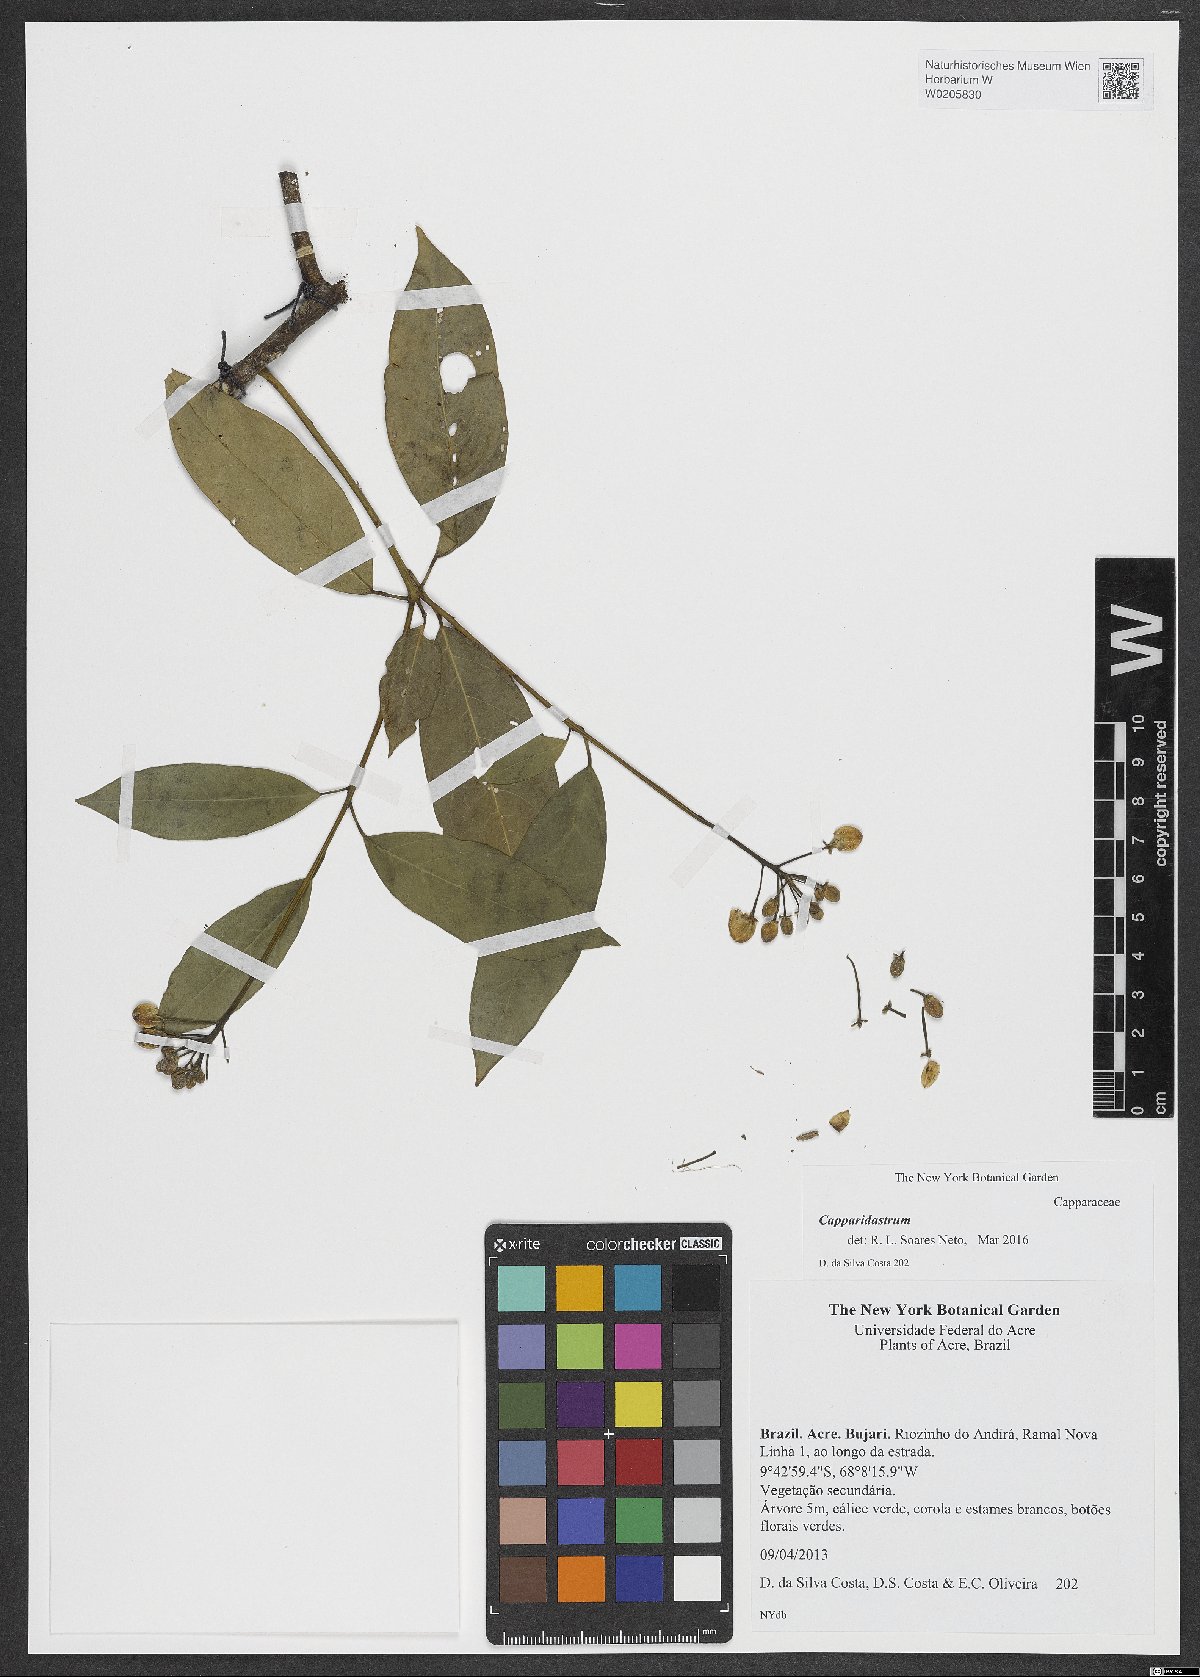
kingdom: Plantae
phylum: Tracheophyta
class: Magnoliopsida
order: Brassicales
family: Capparaceae
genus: Capparidastrum
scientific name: Capparidastrum
